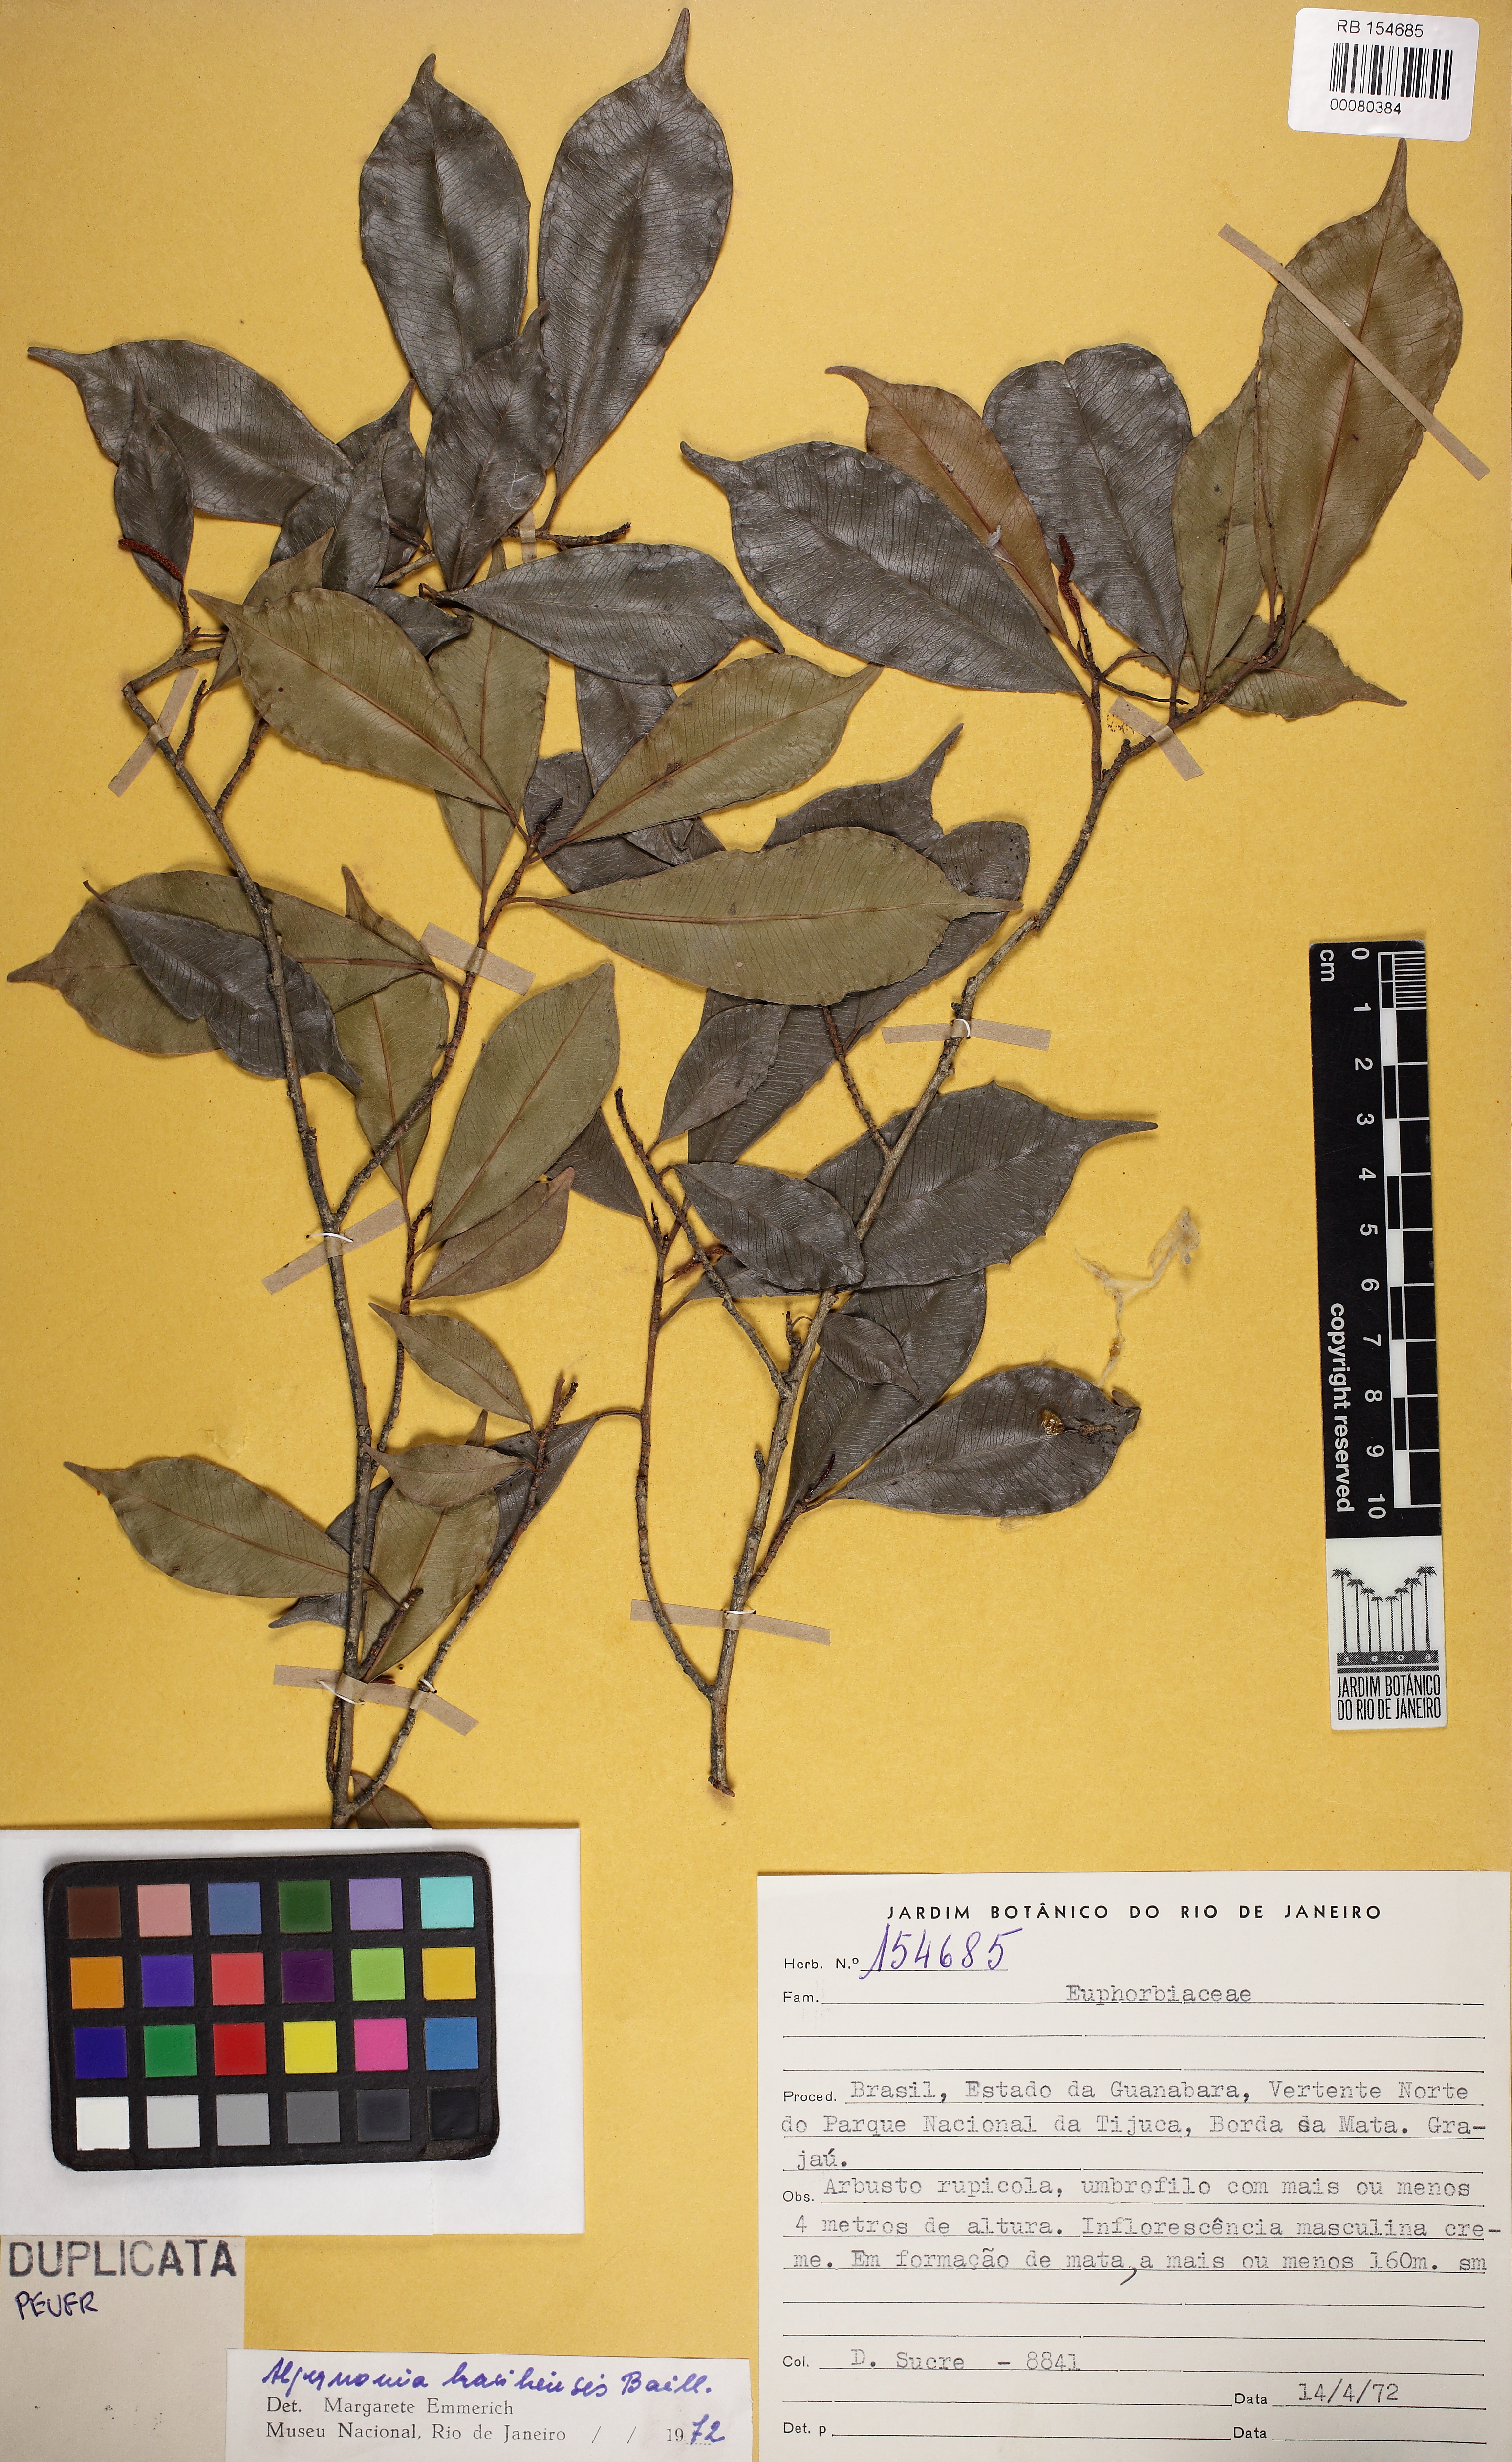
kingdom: Plantae
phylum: Tracheophyta
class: Magnoliopsida
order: Malpighiales
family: Euphorbiaceae
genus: Algernonia
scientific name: Algernonia brasiliensis
